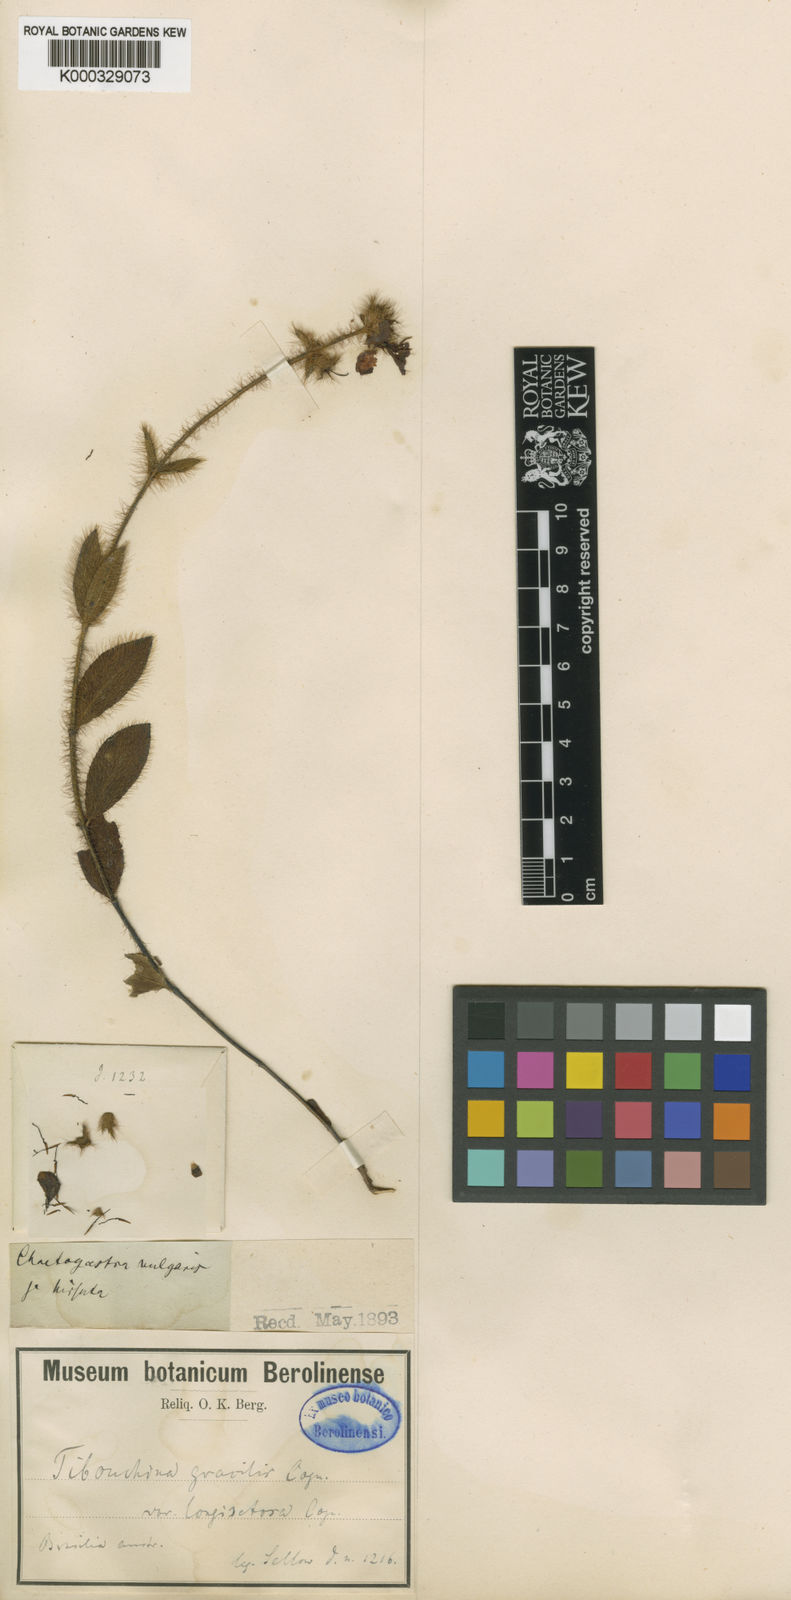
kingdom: Plantae
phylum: Tracheophyta
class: Magnoliopsida
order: Myrtales
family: Melastomataceae
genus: Chaetogastra
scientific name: Chaetogastra gracilis
